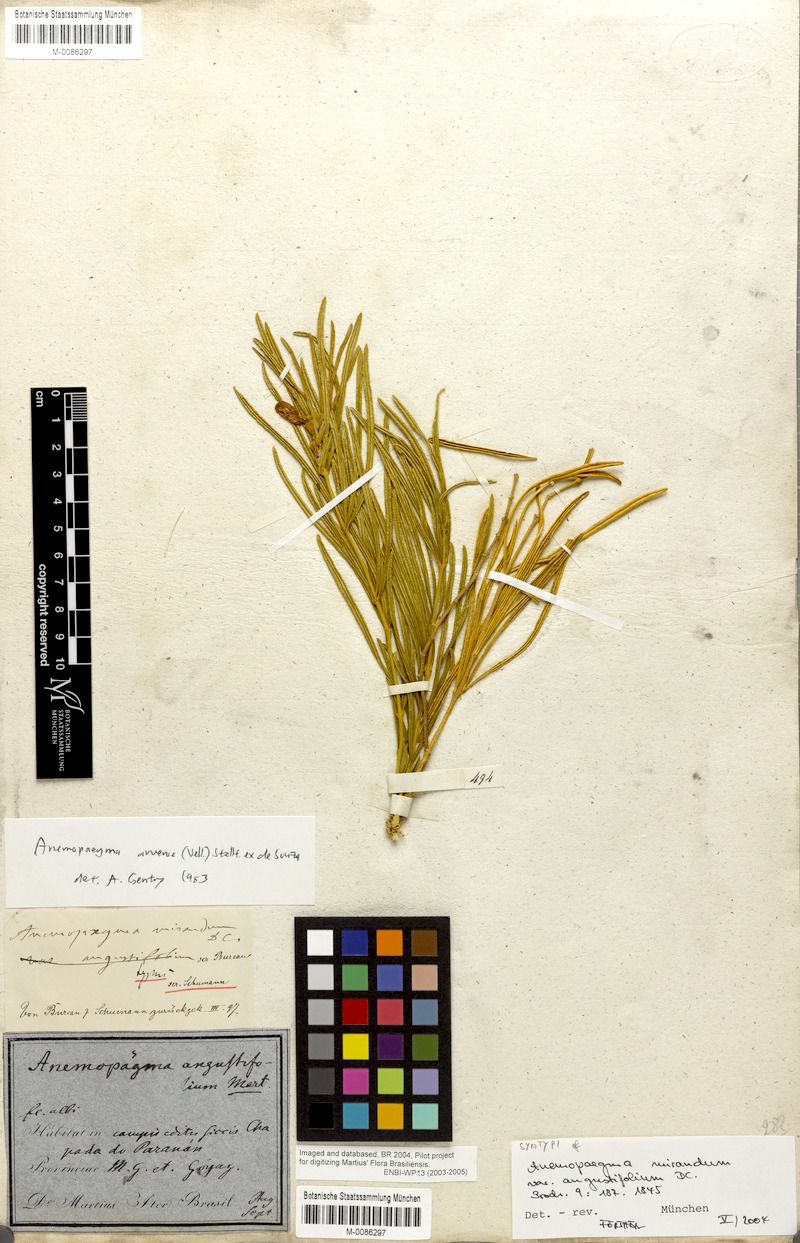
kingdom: Plantae
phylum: Tracheophyta
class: Magnoliopsida
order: Lamiales
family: Bignoniaceae
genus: Anemopaegma
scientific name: Anemopaegma arvense
